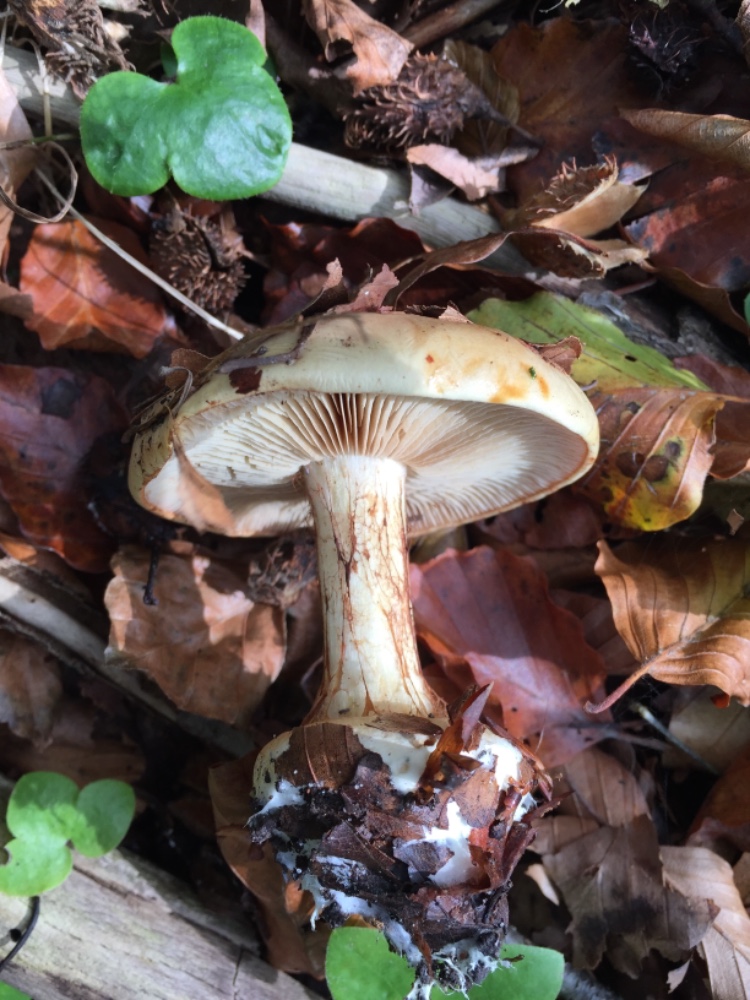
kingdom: Fungi
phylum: Basidiomycota
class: Agaricomycetes
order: Agaricales
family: Cortinariaceae
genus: Calonarius
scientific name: Calonarius humolens
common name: radise-slørhat
